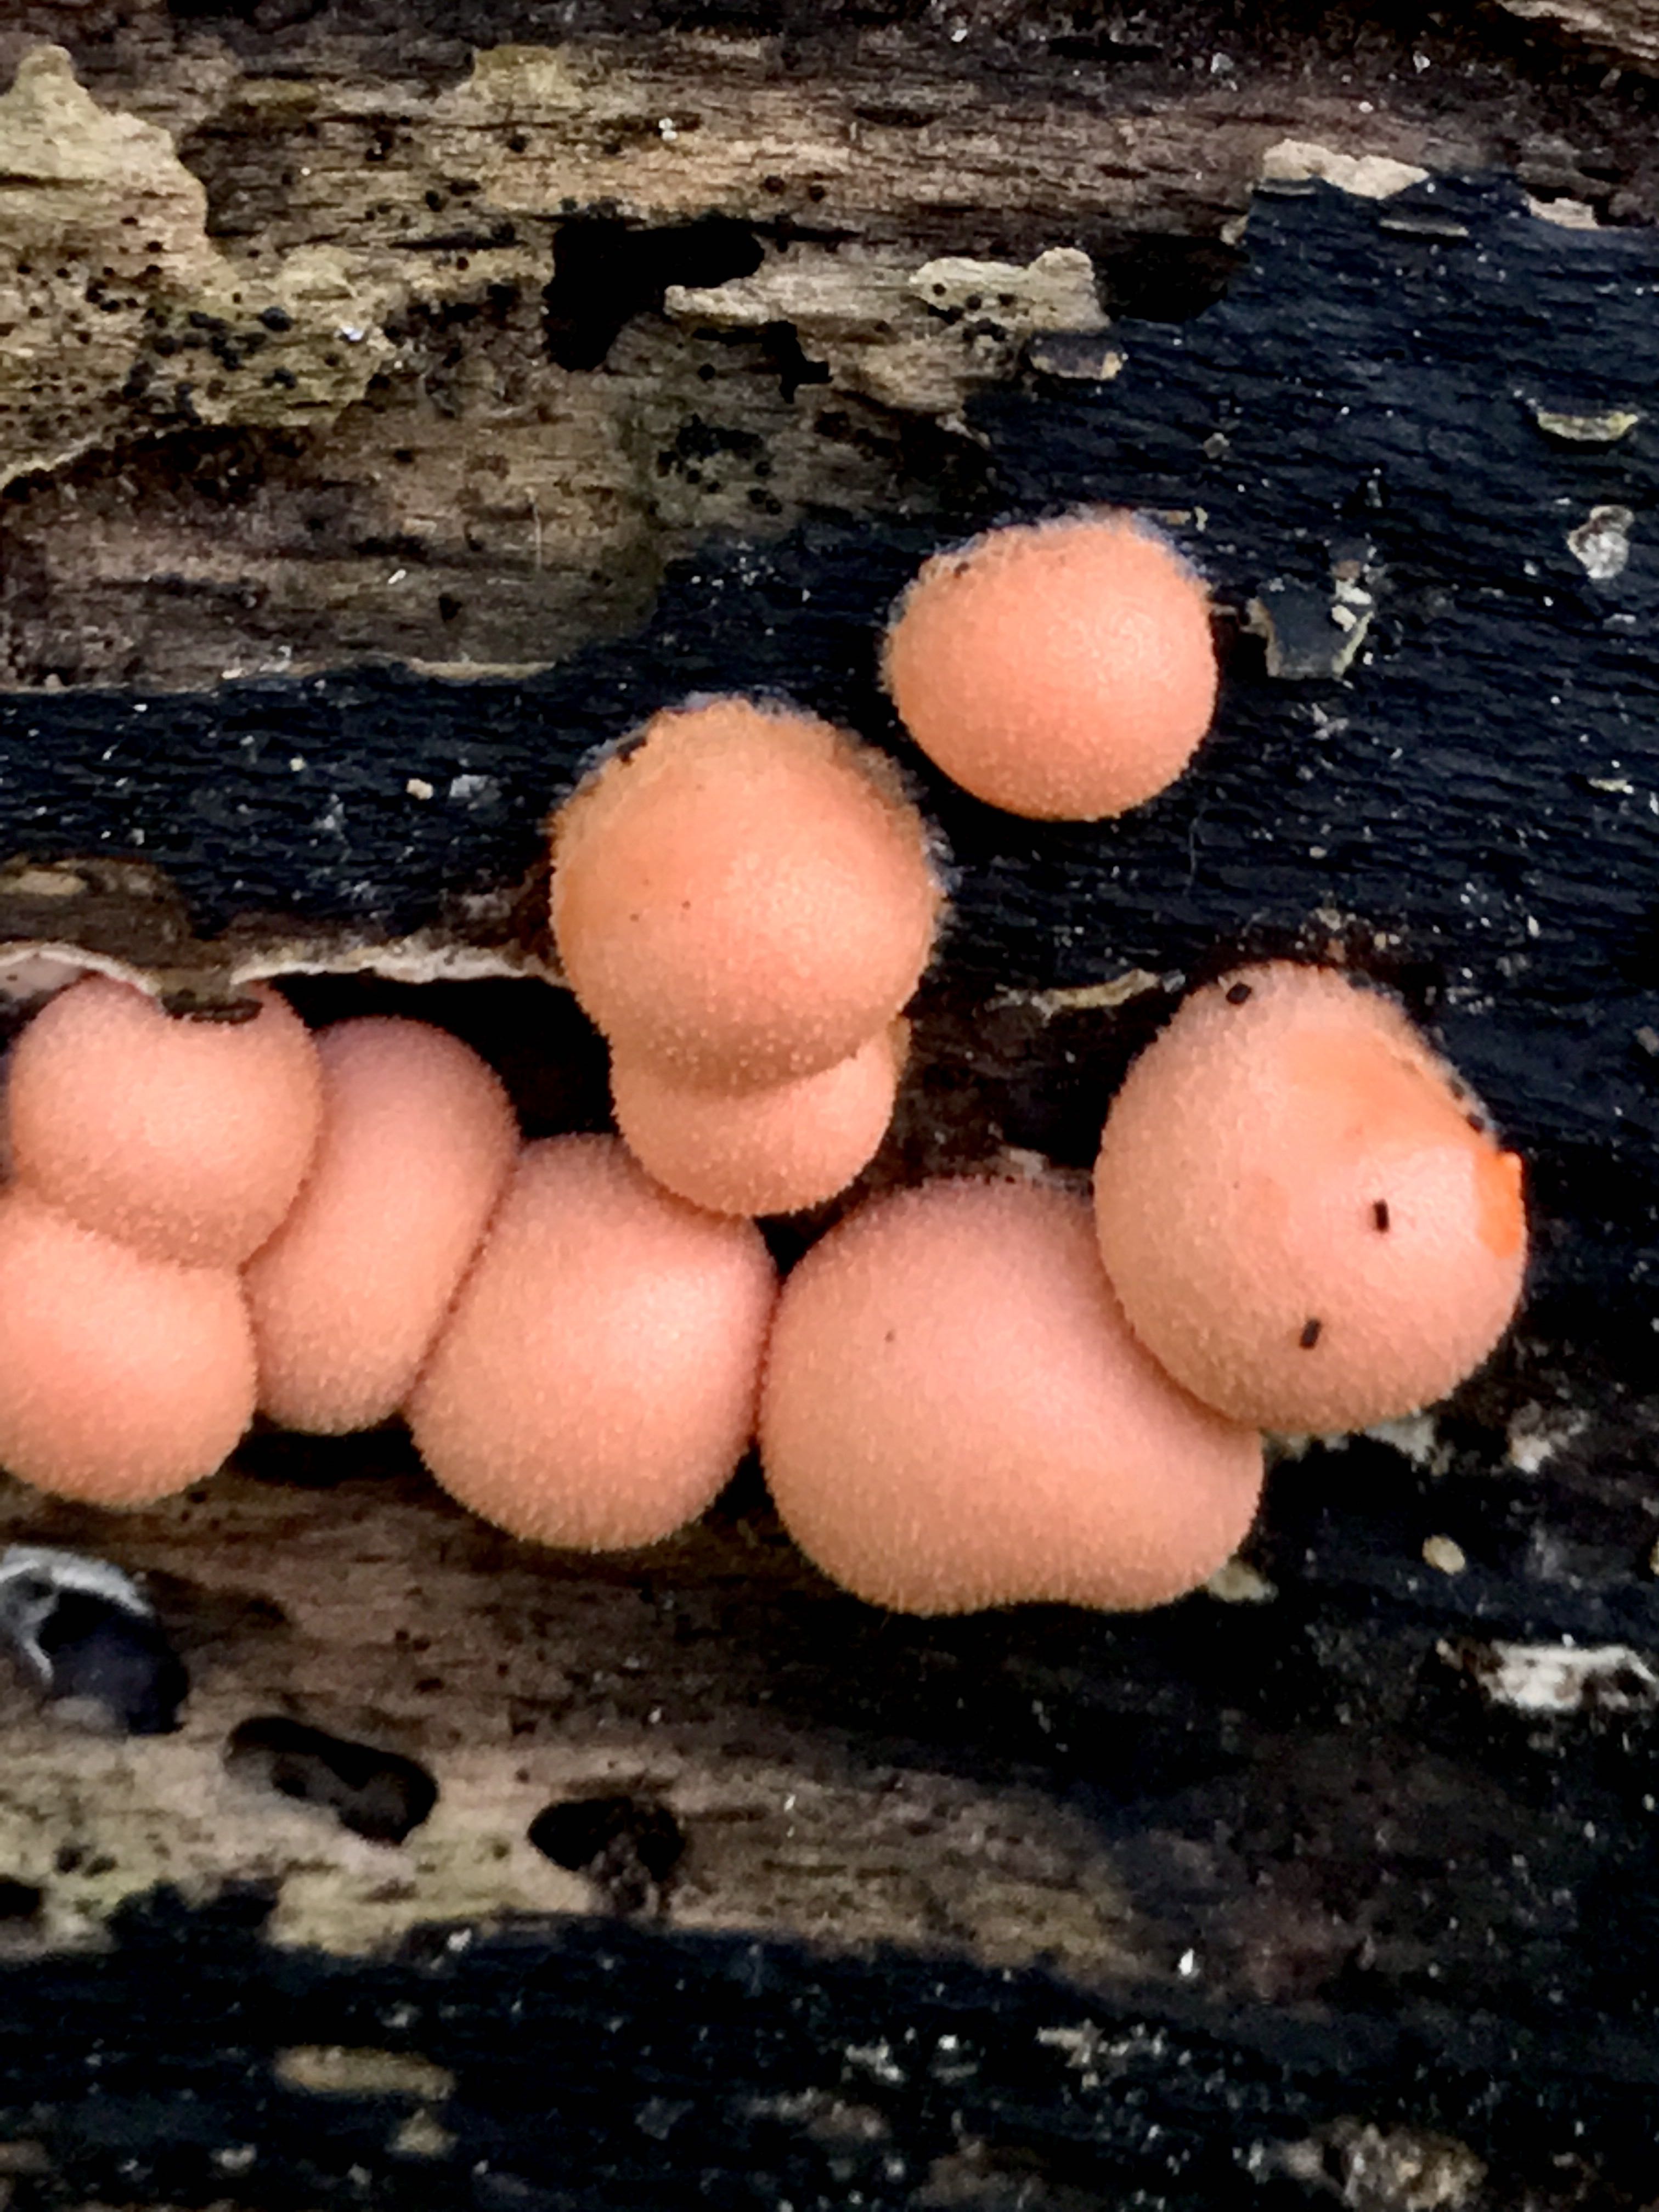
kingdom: Protozoa
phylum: Mycetozoa
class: Myxomycetes
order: Cribrariales
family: Tubiferaceae
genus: Lycogala
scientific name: Lycogala epidendrum
